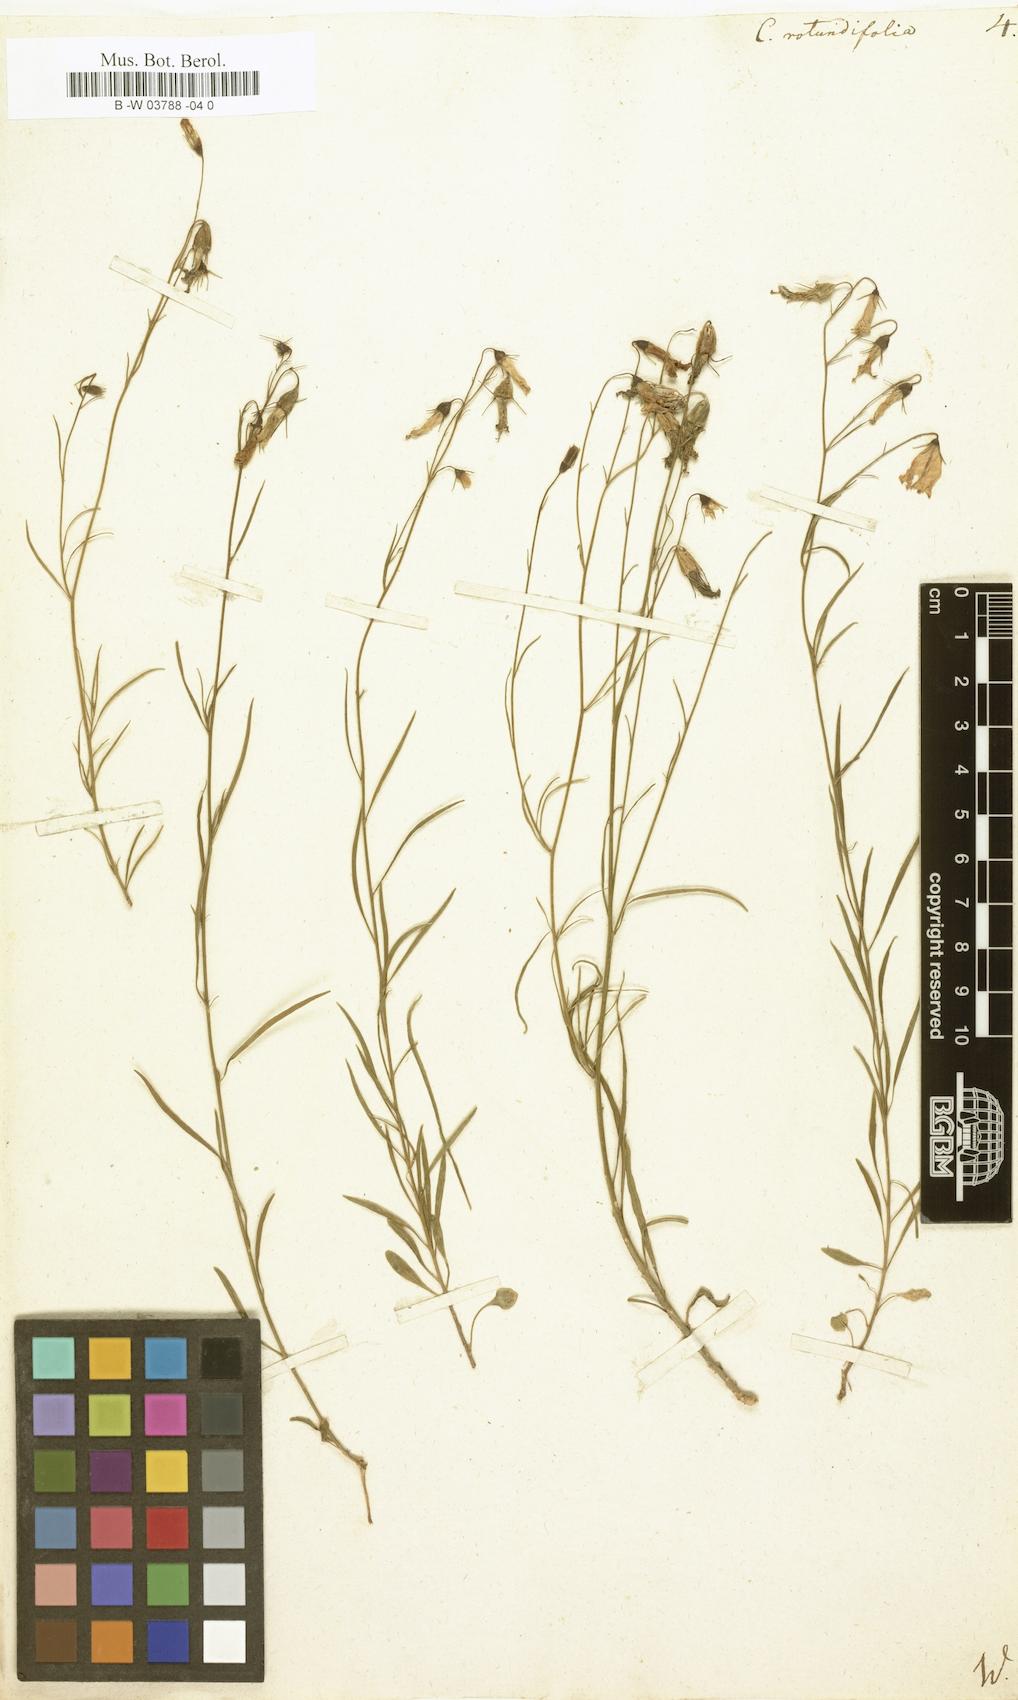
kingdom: Plantae
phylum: Tracheophyta
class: Magnoliopsida
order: Asterales
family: Campanulaceae
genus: Campanula
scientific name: Campanula rotundifolia
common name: Harebell
